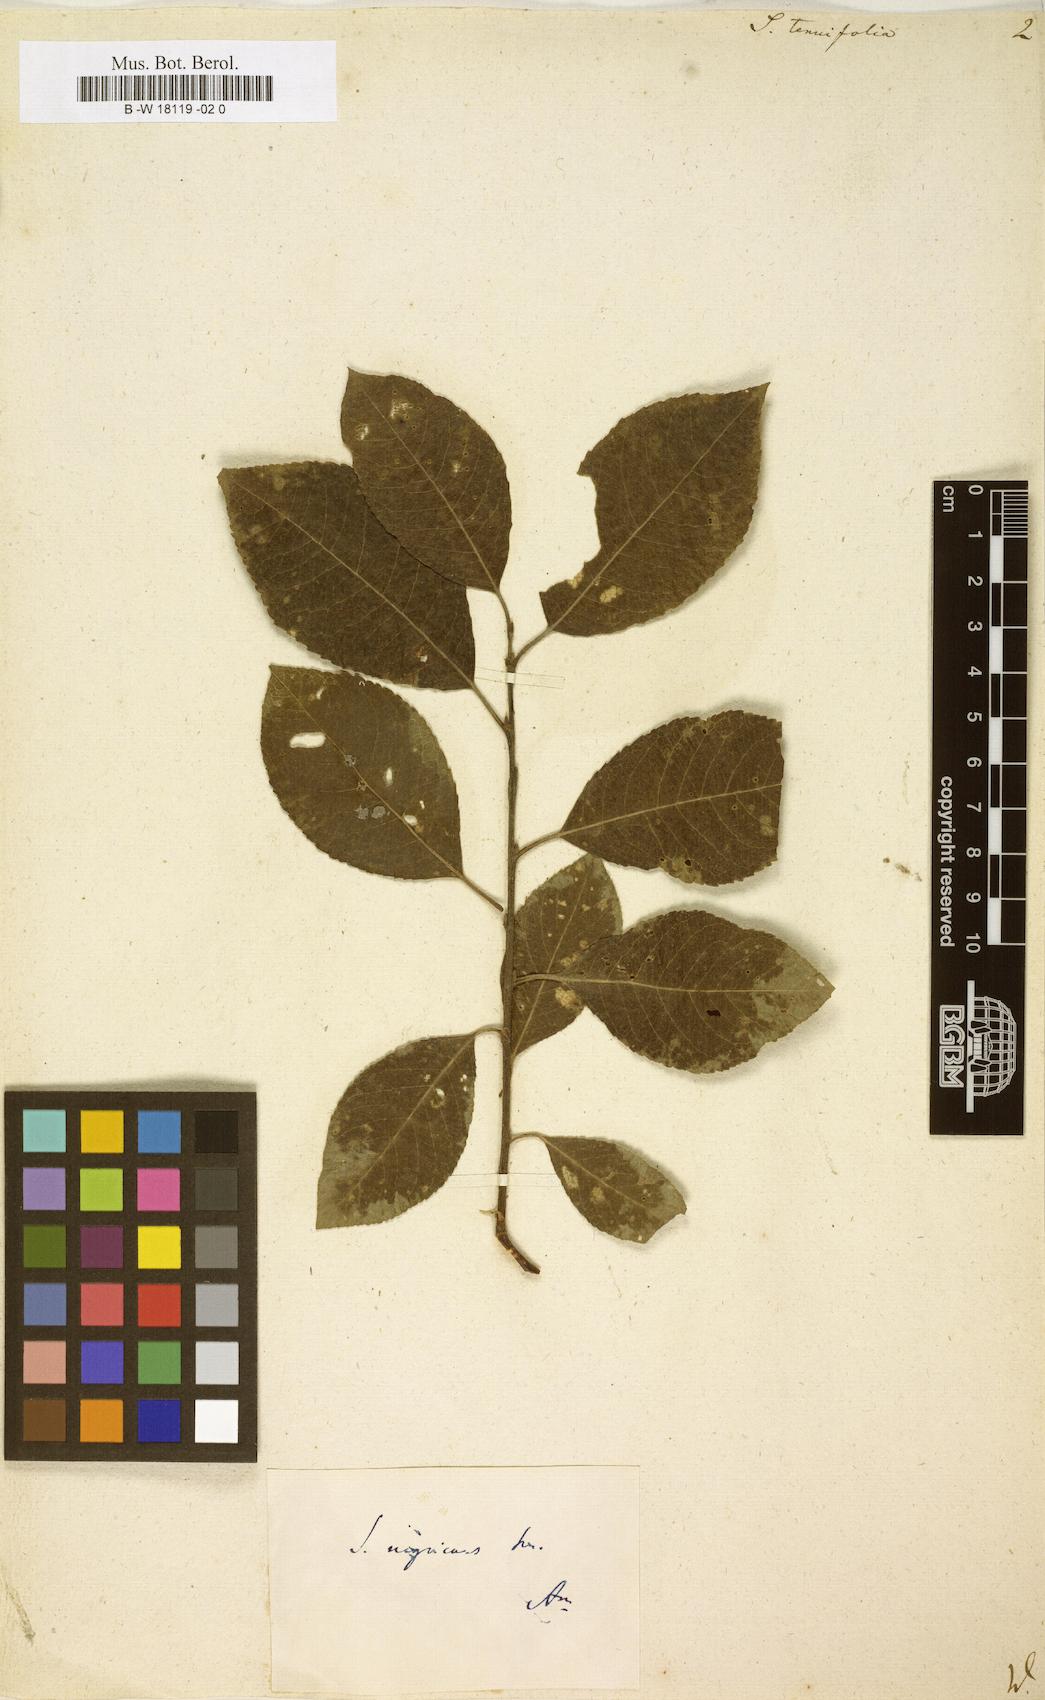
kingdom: Plantae
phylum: Tracheophyta
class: Magnoliopsida
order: Malpighiales
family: Salicaceae
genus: Salix
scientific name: Salix
